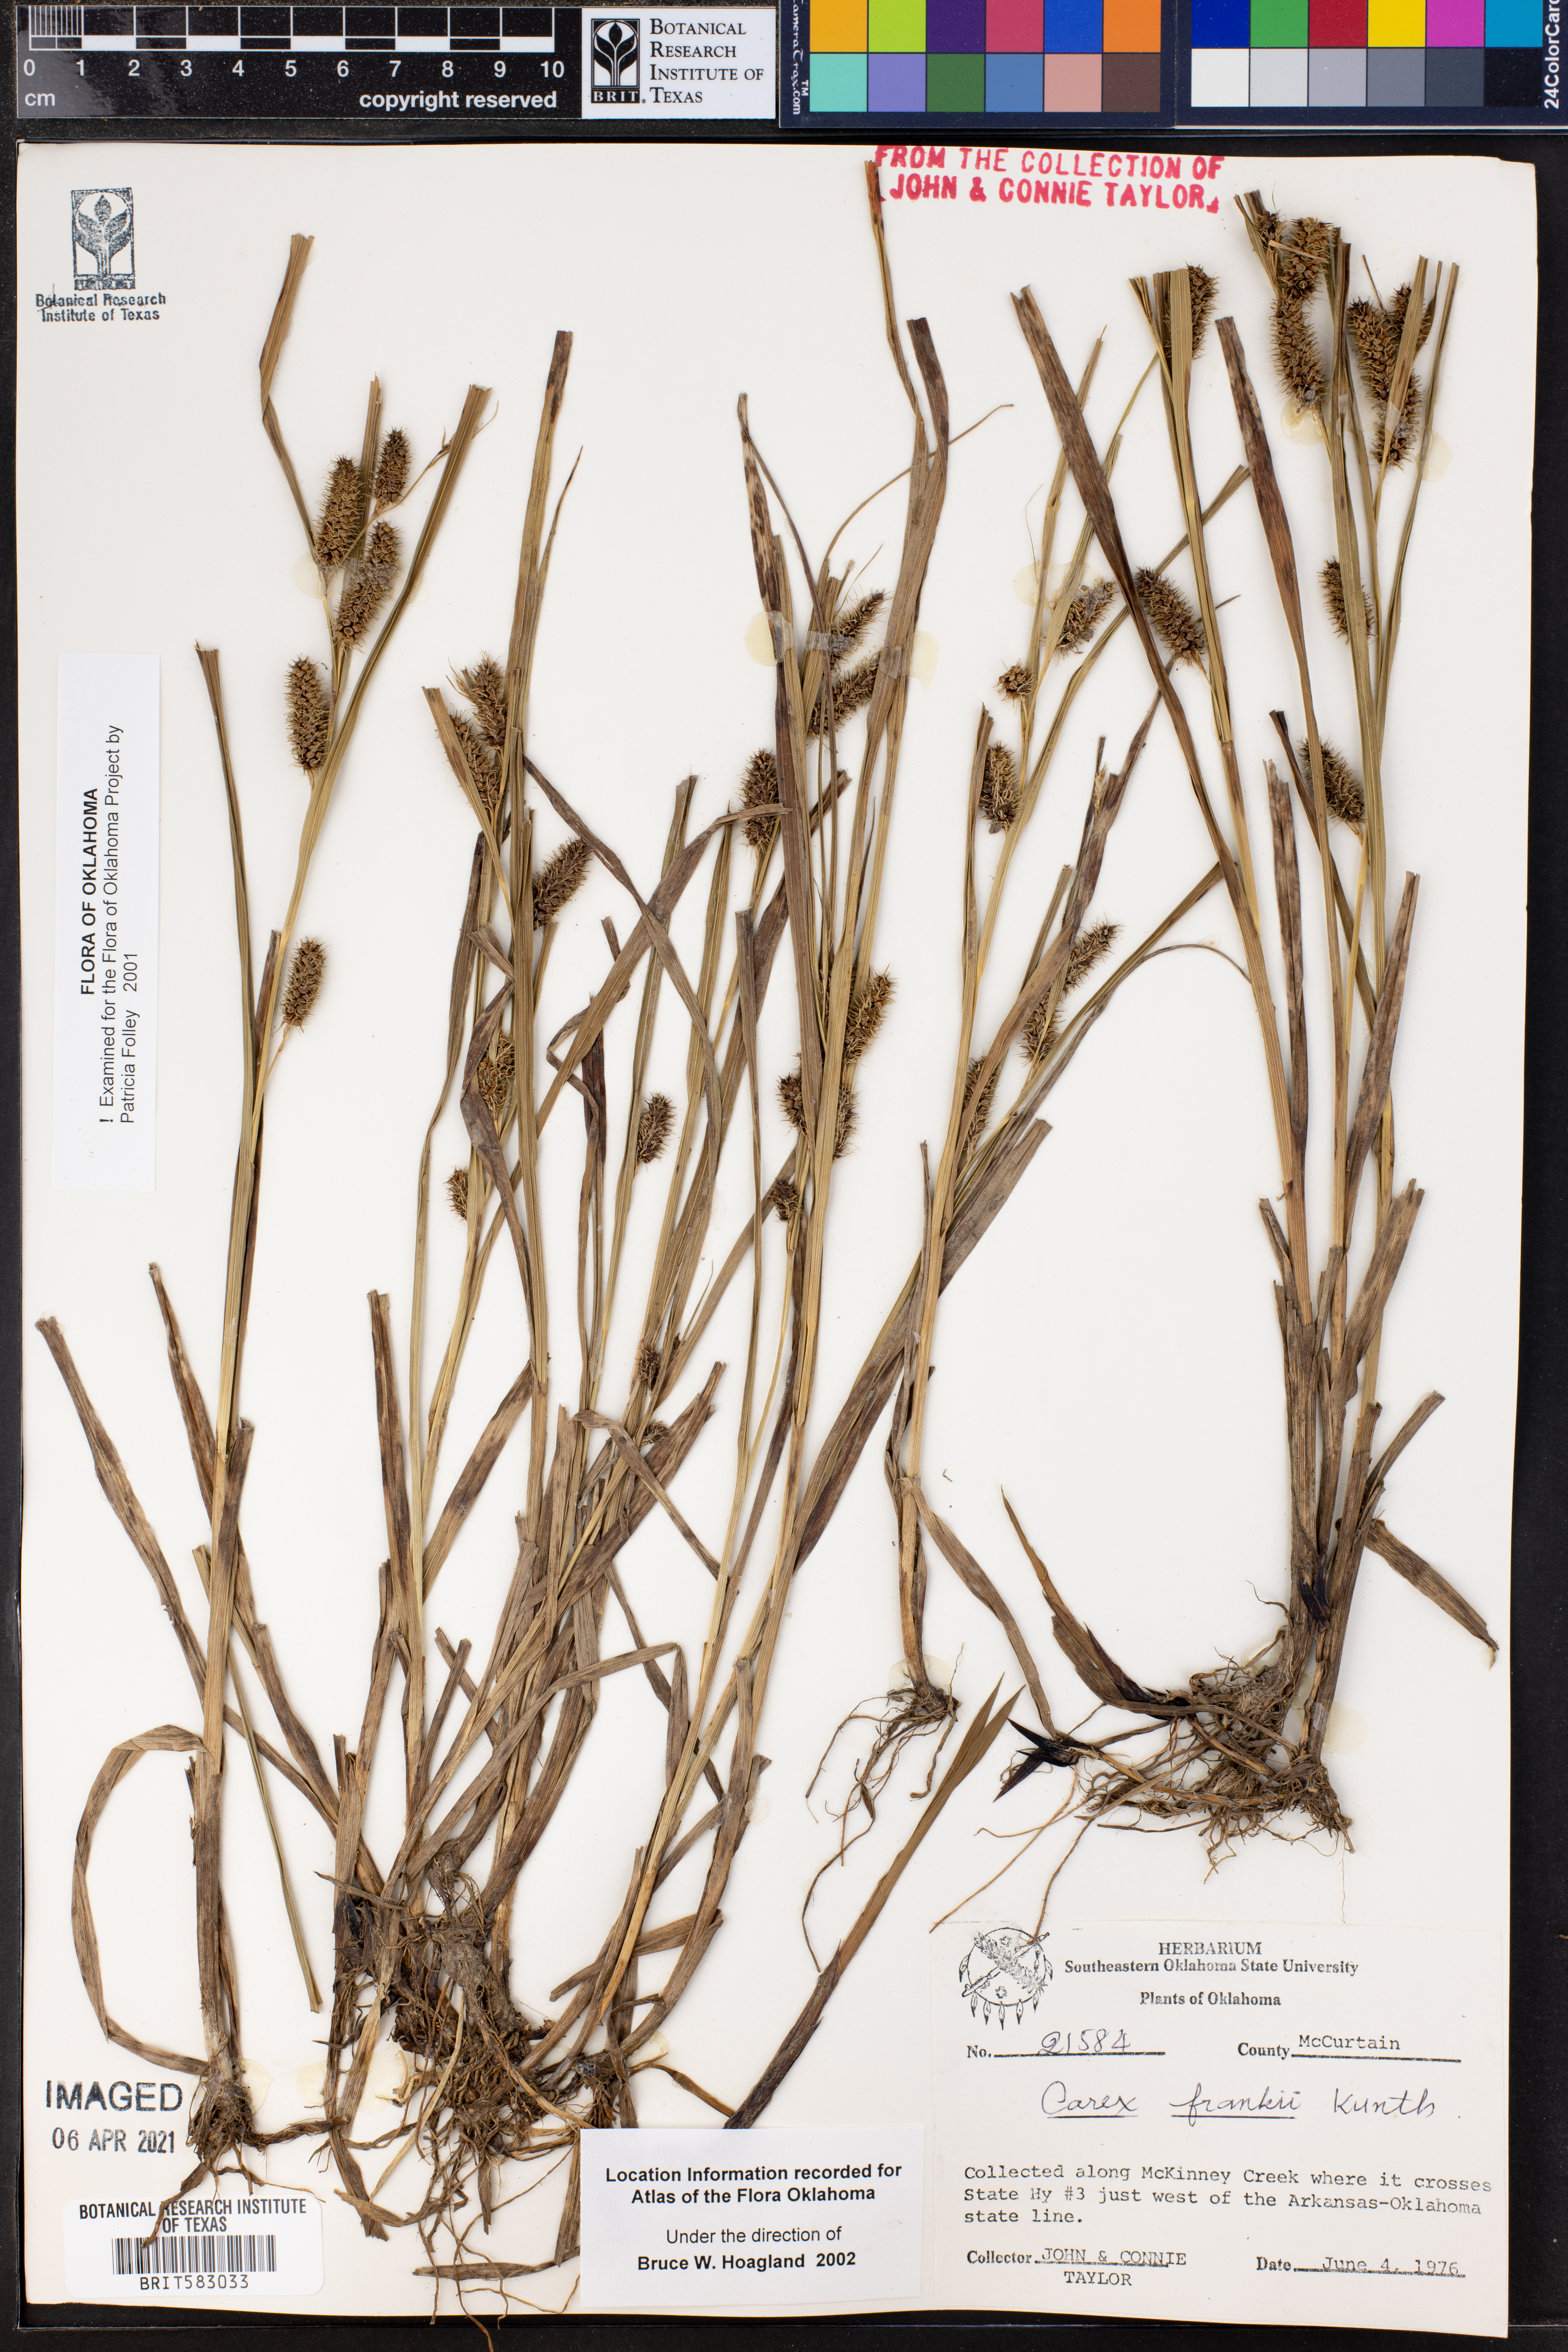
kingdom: Plantae
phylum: Tracheophyta
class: Liliopsida
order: Poales
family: Cyperaceae
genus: Carex
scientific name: Carex frankii
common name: Frank's sedge
